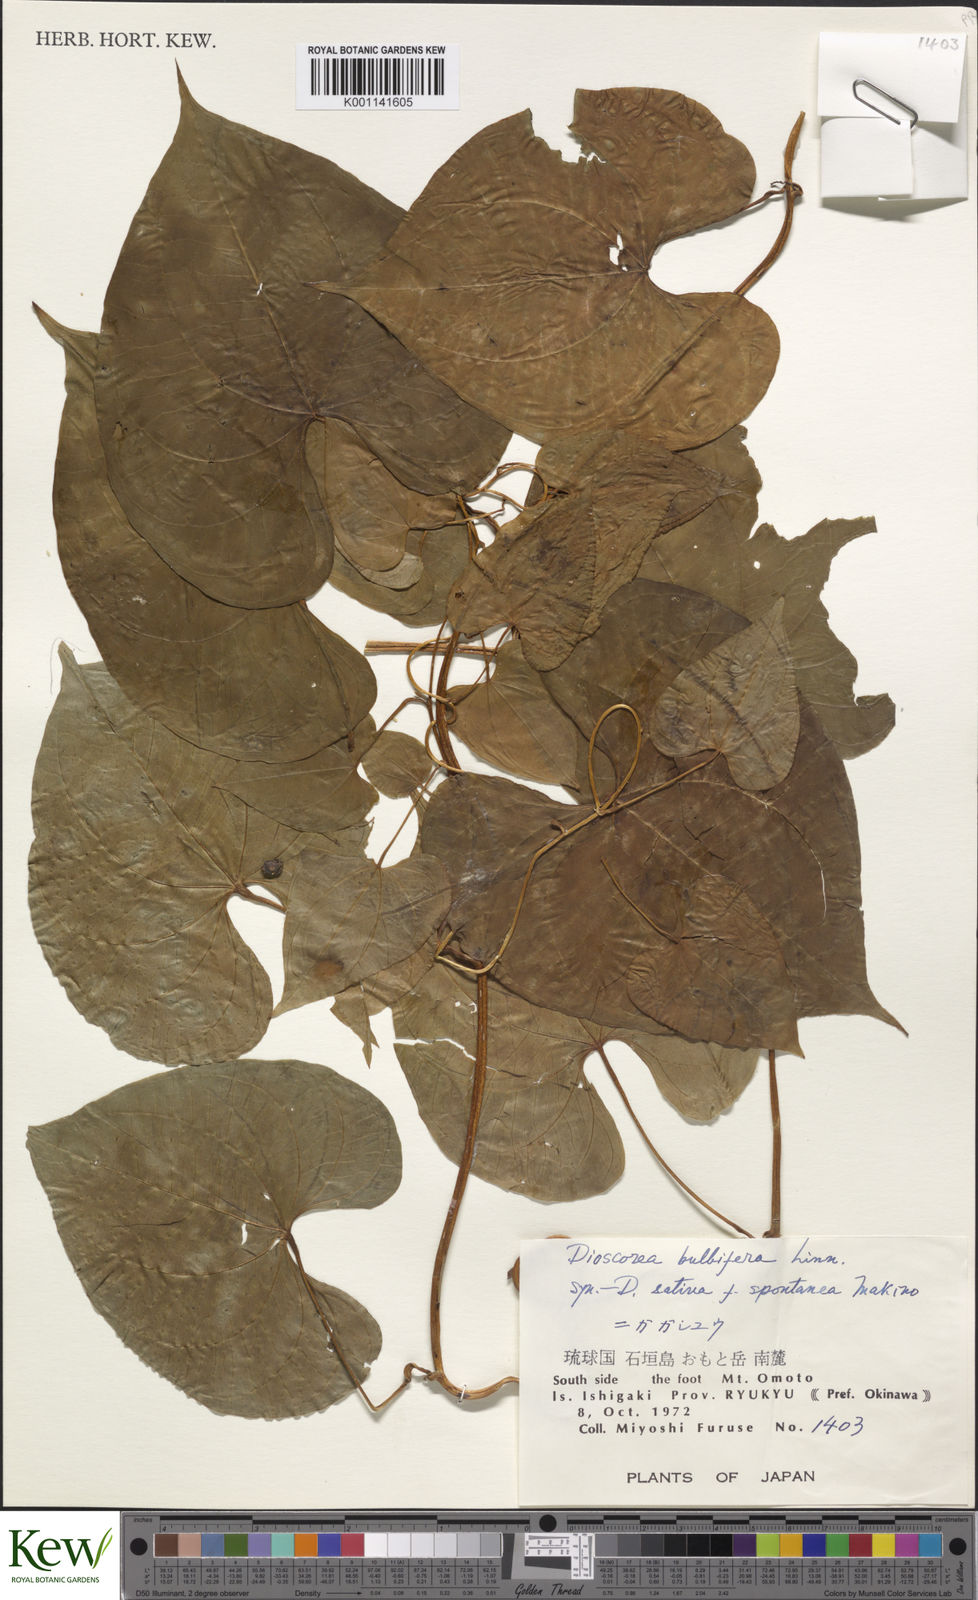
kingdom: Plantae
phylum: Tracheophyta
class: Liliopsida
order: Dioscoreales
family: Dioscoreaceae
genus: Dioscorea
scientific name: Dioscorea bulbifera
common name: Air yam
